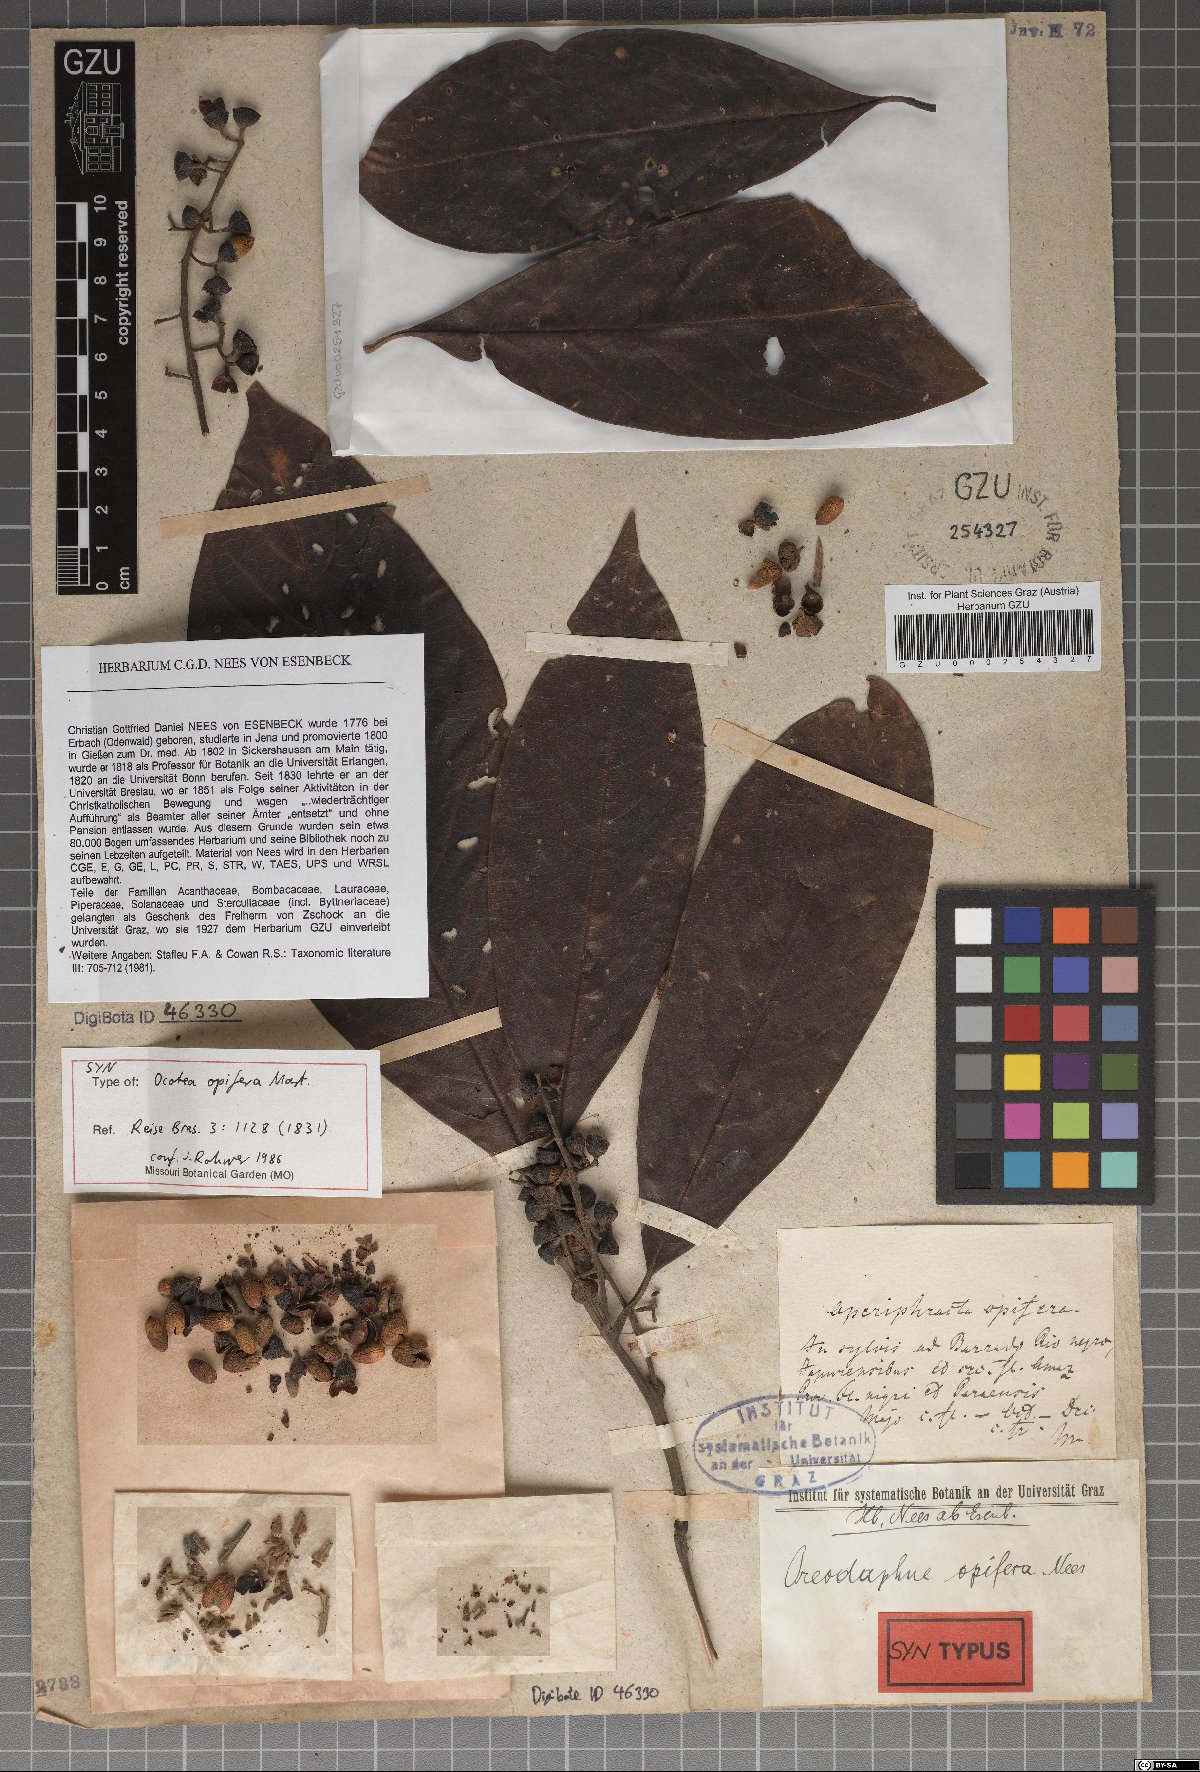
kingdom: Plantae
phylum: Tracheophyta
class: Magnoliopsida
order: Laurales
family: Lauraceae
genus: Mespilodaphne
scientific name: Mespilodaphne opifera
